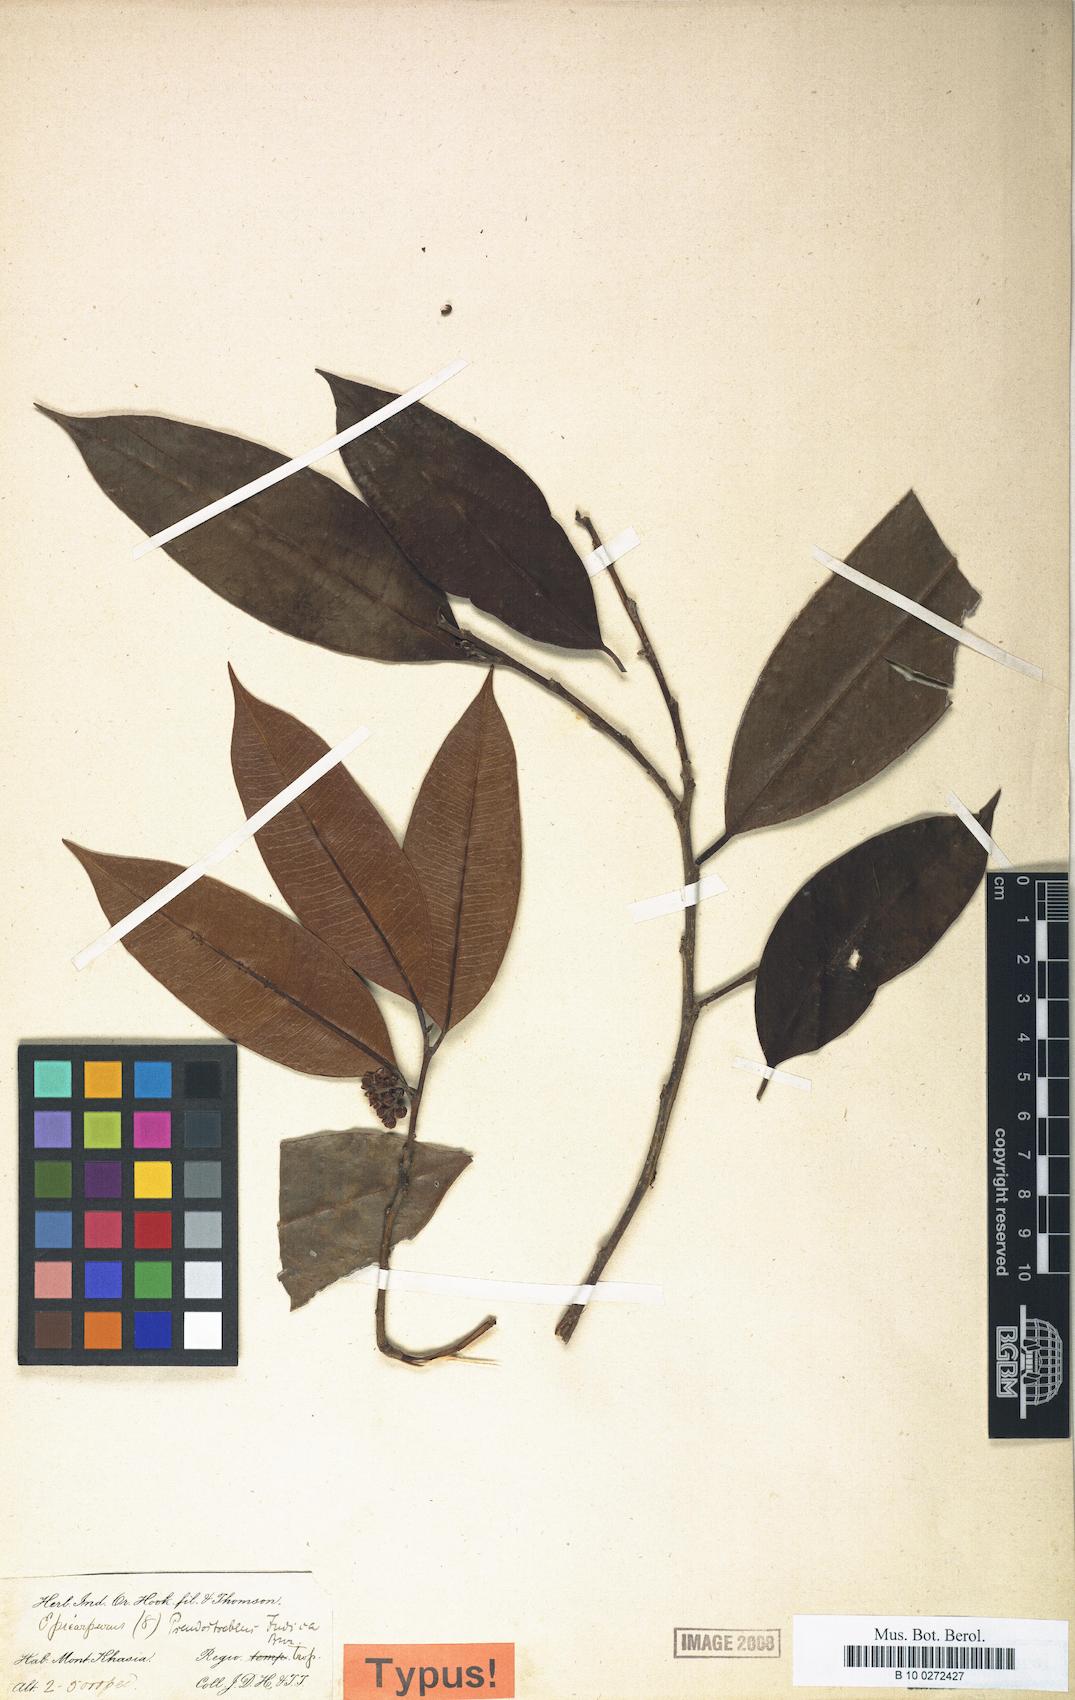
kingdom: Plantae
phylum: Tracheophyta
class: Magnoliopsida
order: Rosales
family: Moraceae
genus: Pseudostreblus
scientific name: Pseudostreblus indicus
